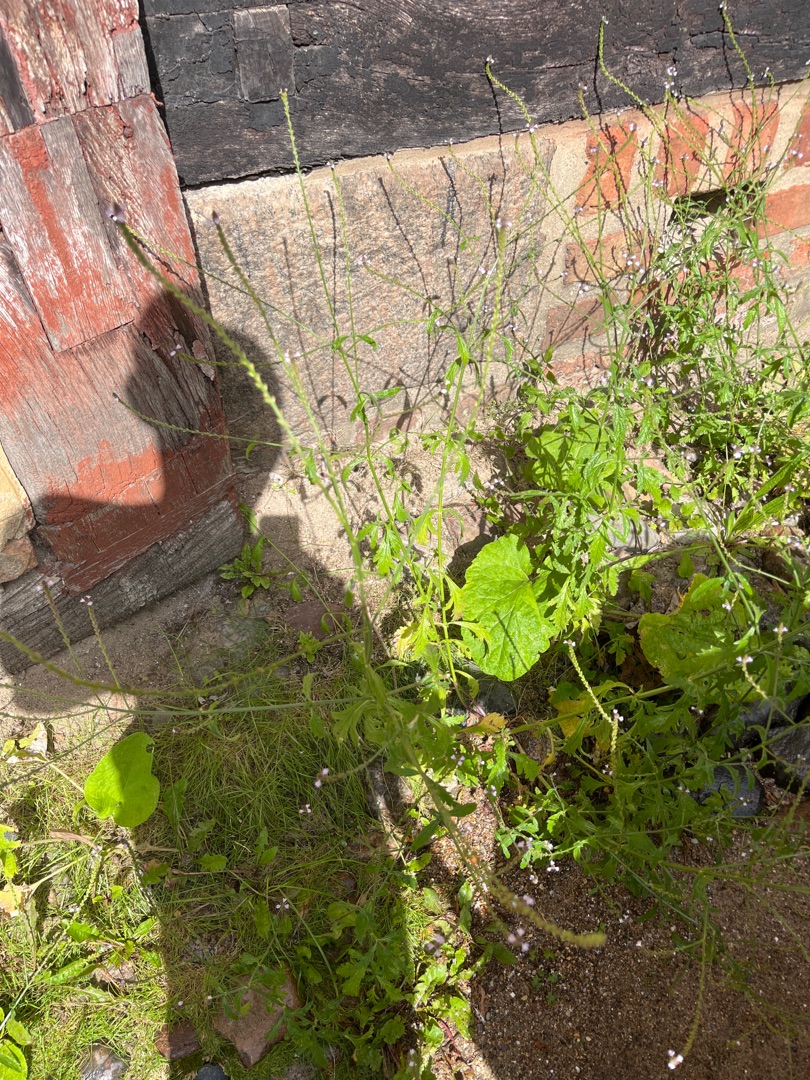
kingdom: Plantae
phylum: Tracheophyta
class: Magnoliopsida
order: Lamiales
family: Verbenaceae
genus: Verbena
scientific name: Verbena officinalis
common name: Læge-jernurt
